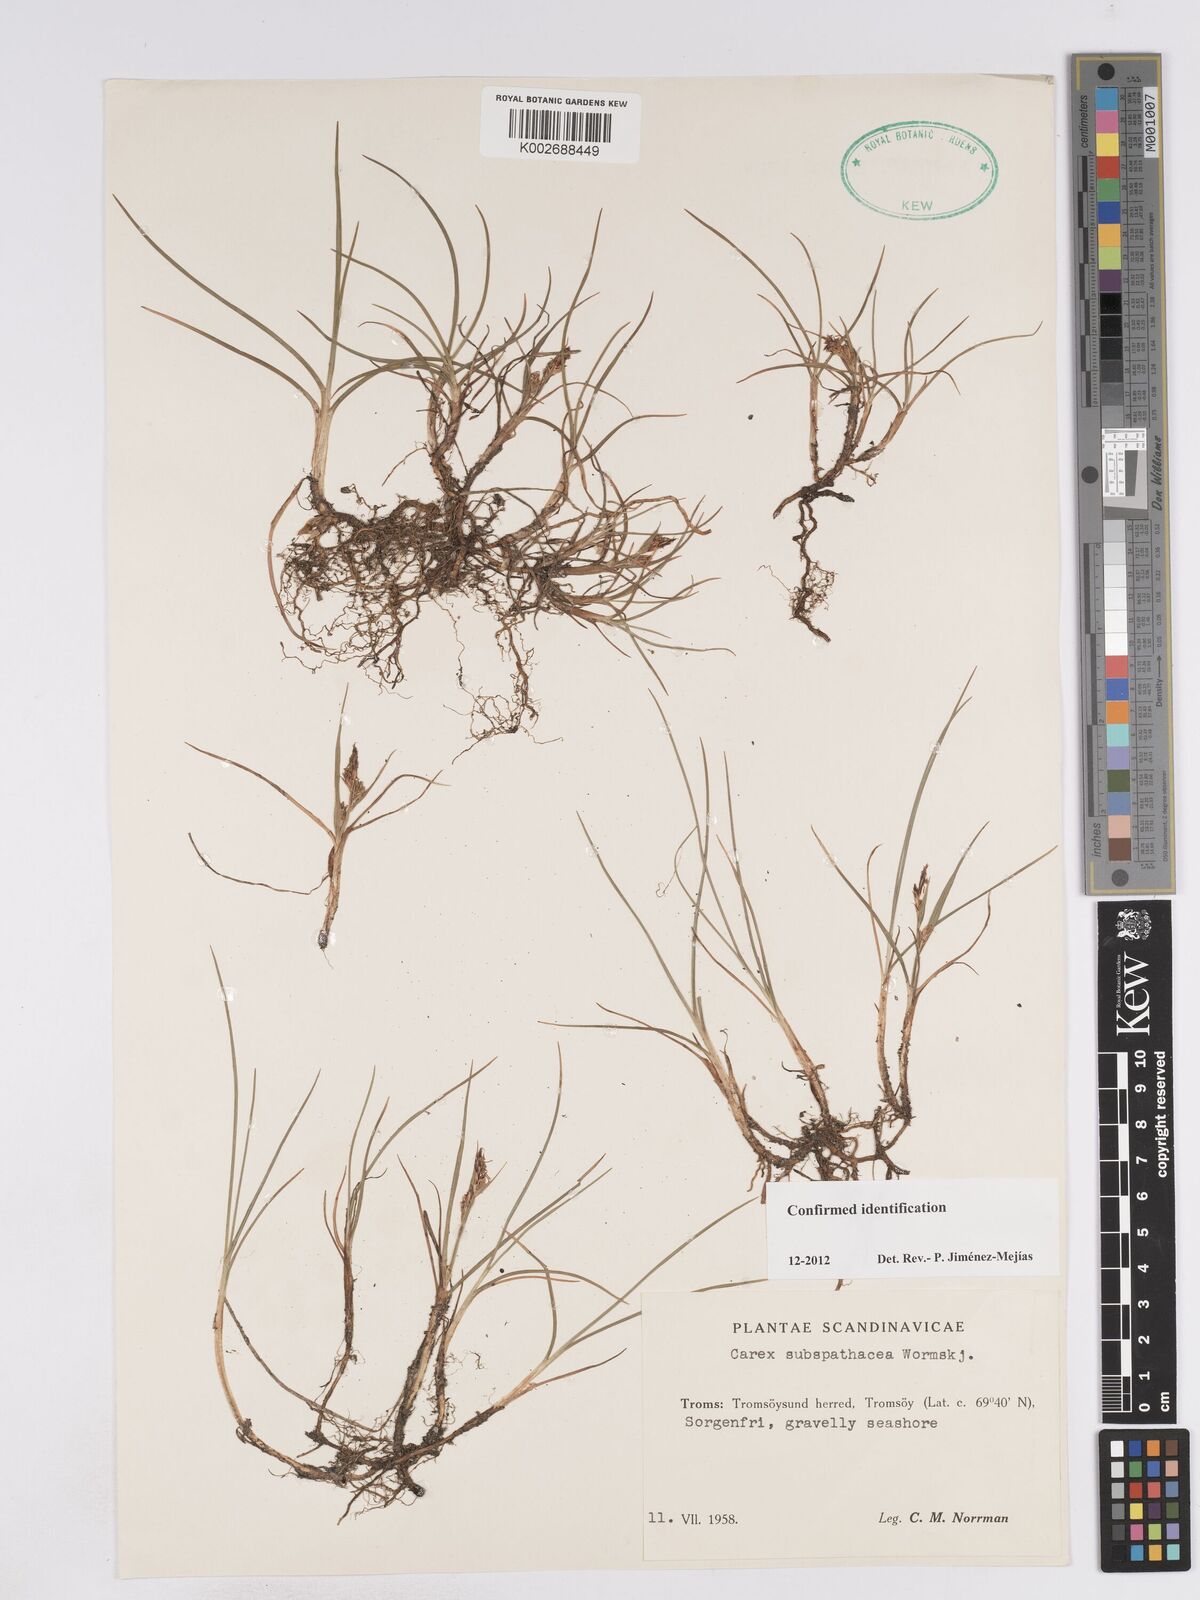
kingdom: Plantae
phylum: Tracheophyta
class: Liliopsida
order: Poales
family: Cyperaceae
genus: Carex
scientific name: Carex subspathacea
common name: Hoppner's sedge
